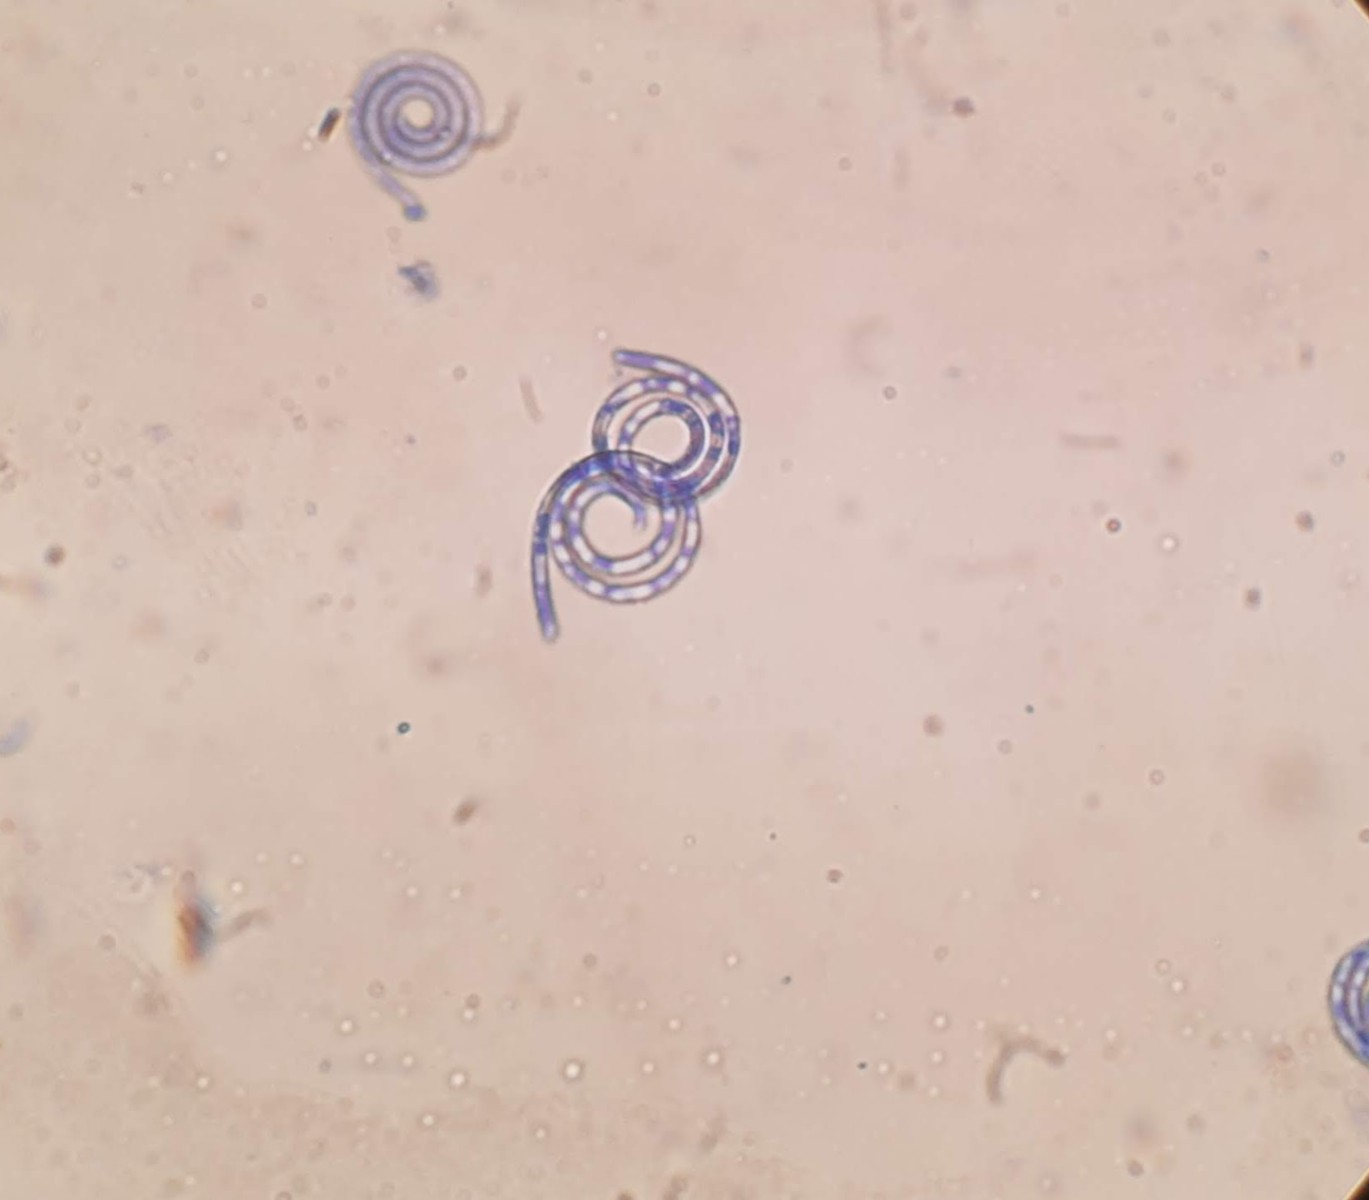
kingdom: Fungi
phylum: Ascomycota
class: Dothideomycetes
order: Tubeufiales
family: Tubeufiaceae
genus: Tubeufia
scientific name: Tubeufia cylindrothecia
